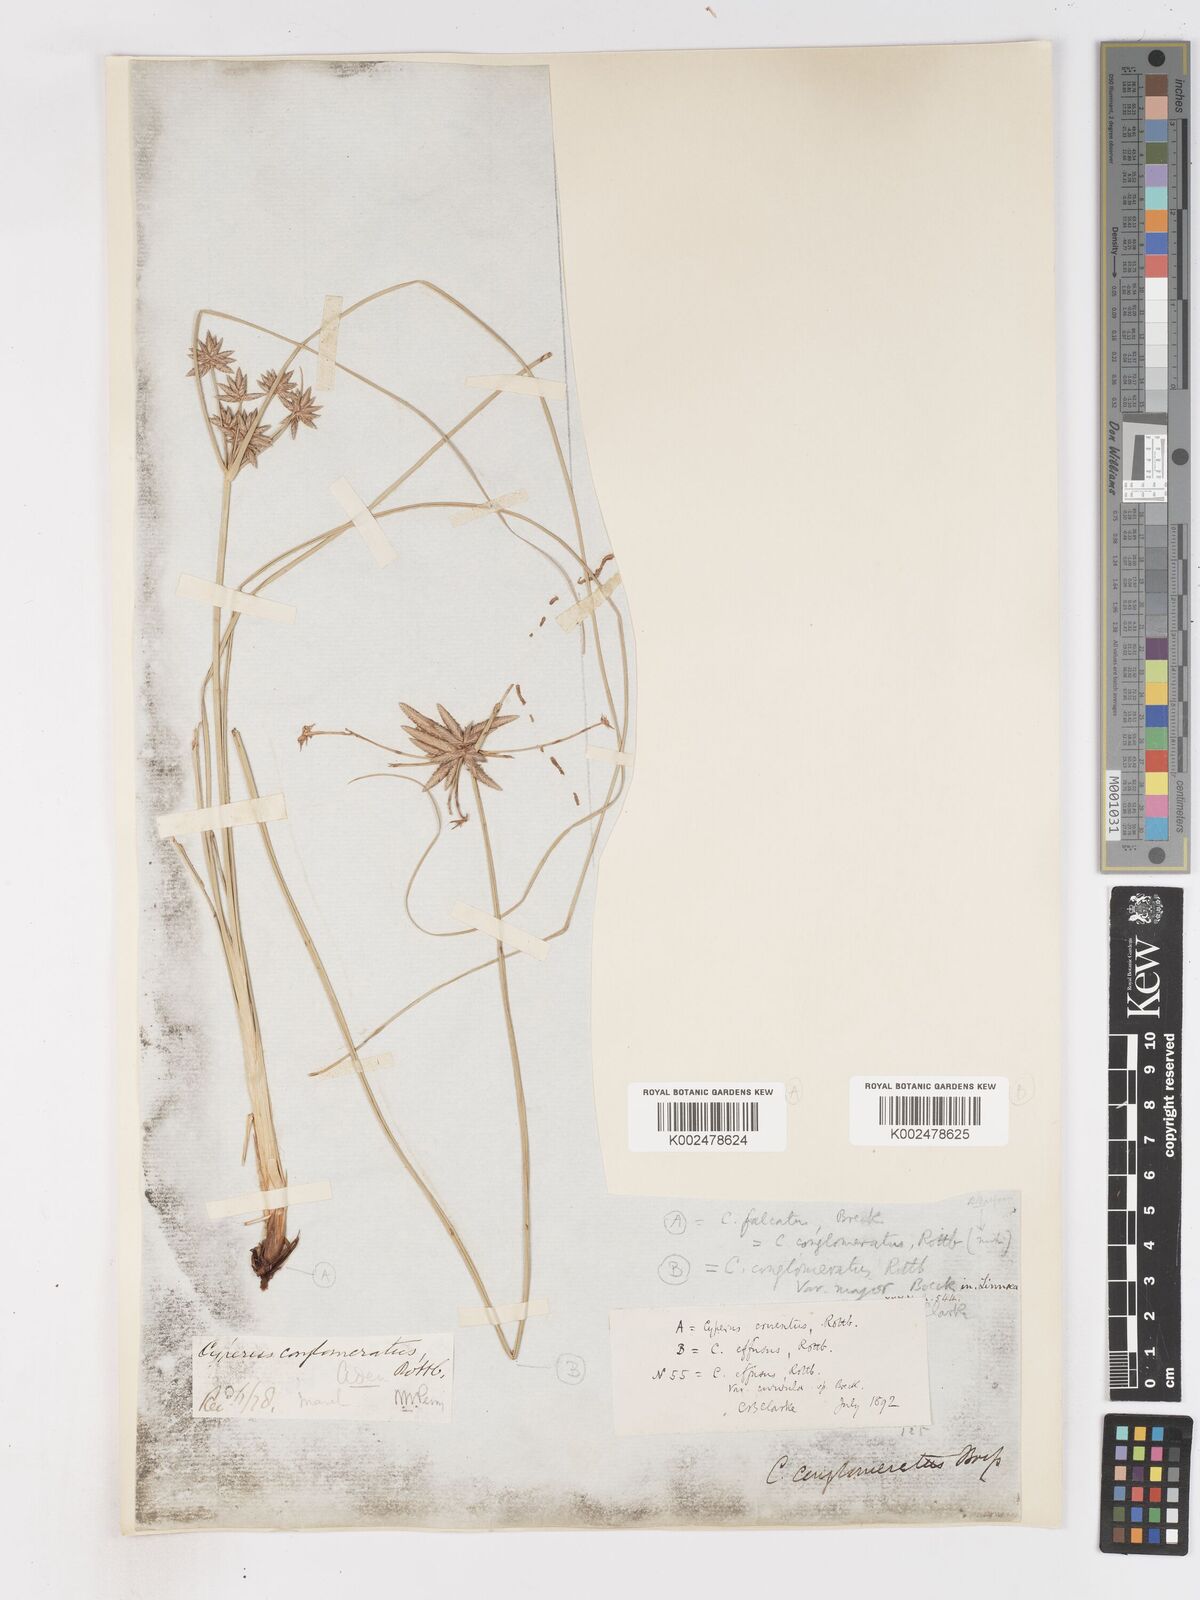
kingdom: Plantae
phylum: Tracheophyta
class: Liliopsida
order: Poales
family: Cyperaceae
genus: Cyperus
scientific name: Cyperus conglomeratus
